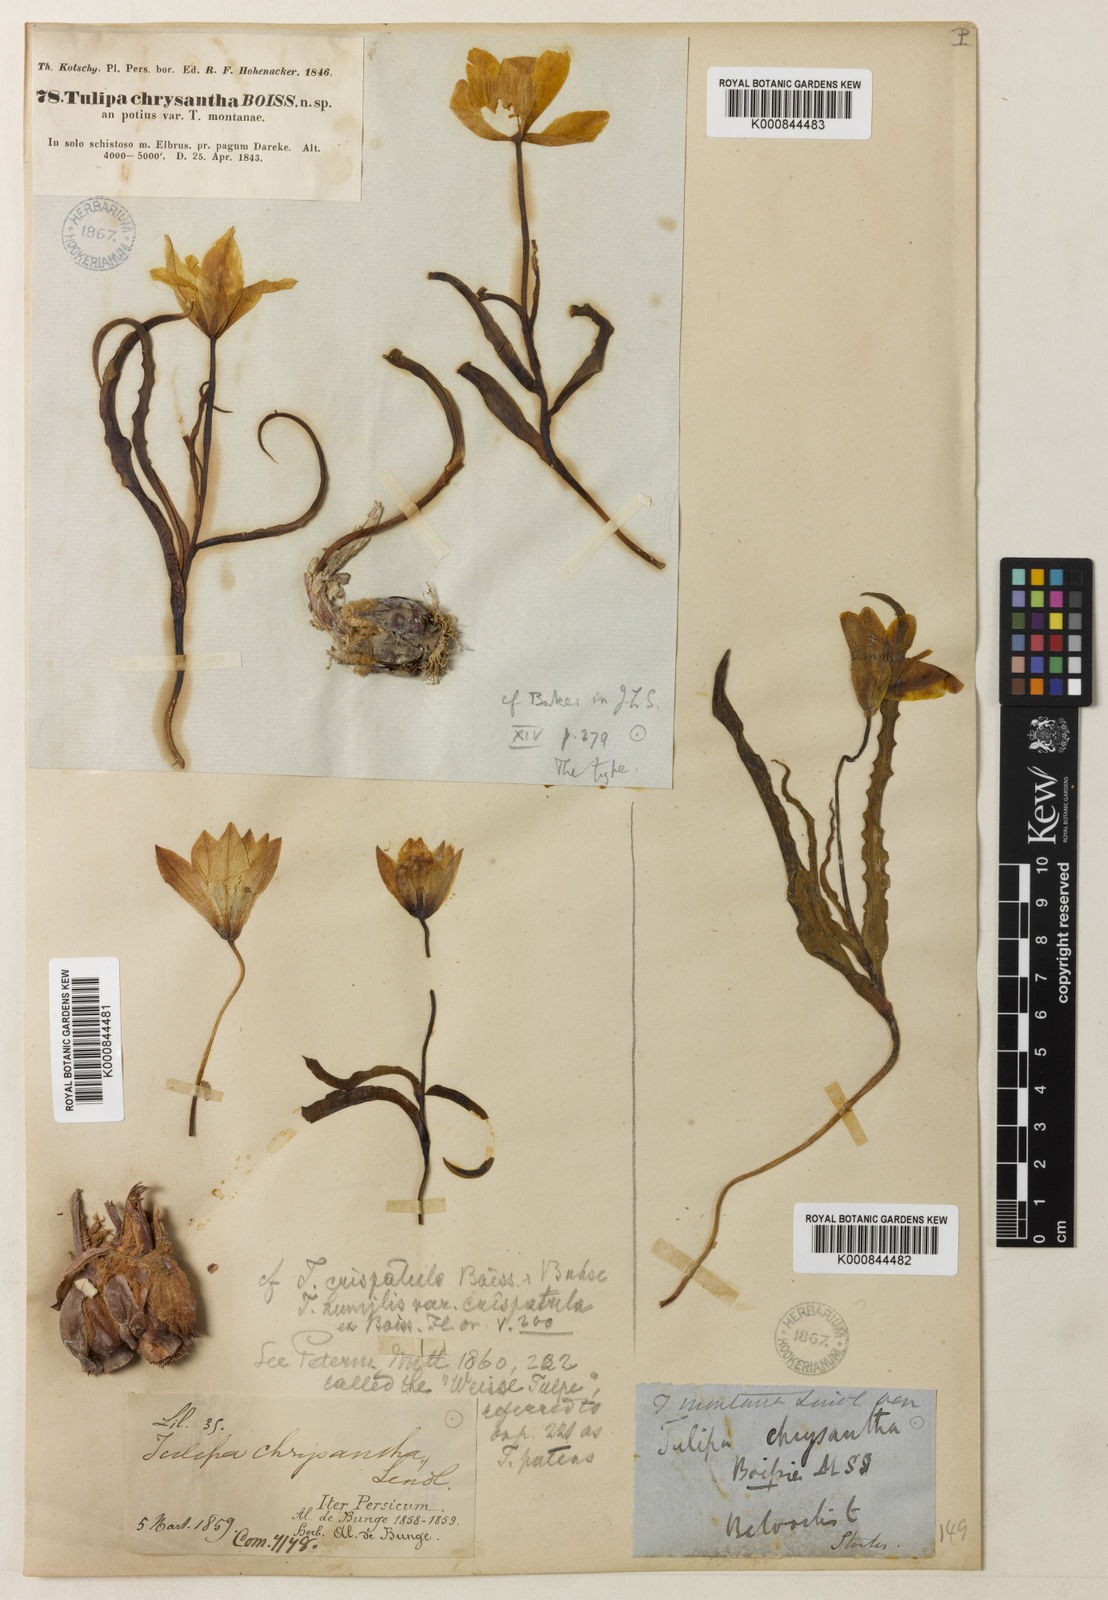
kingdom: Plantae
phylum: Tracheophyta
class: Liliopsida
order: Liliales
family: Liliaceae
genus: Tulipa
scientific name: Tulipa montana
